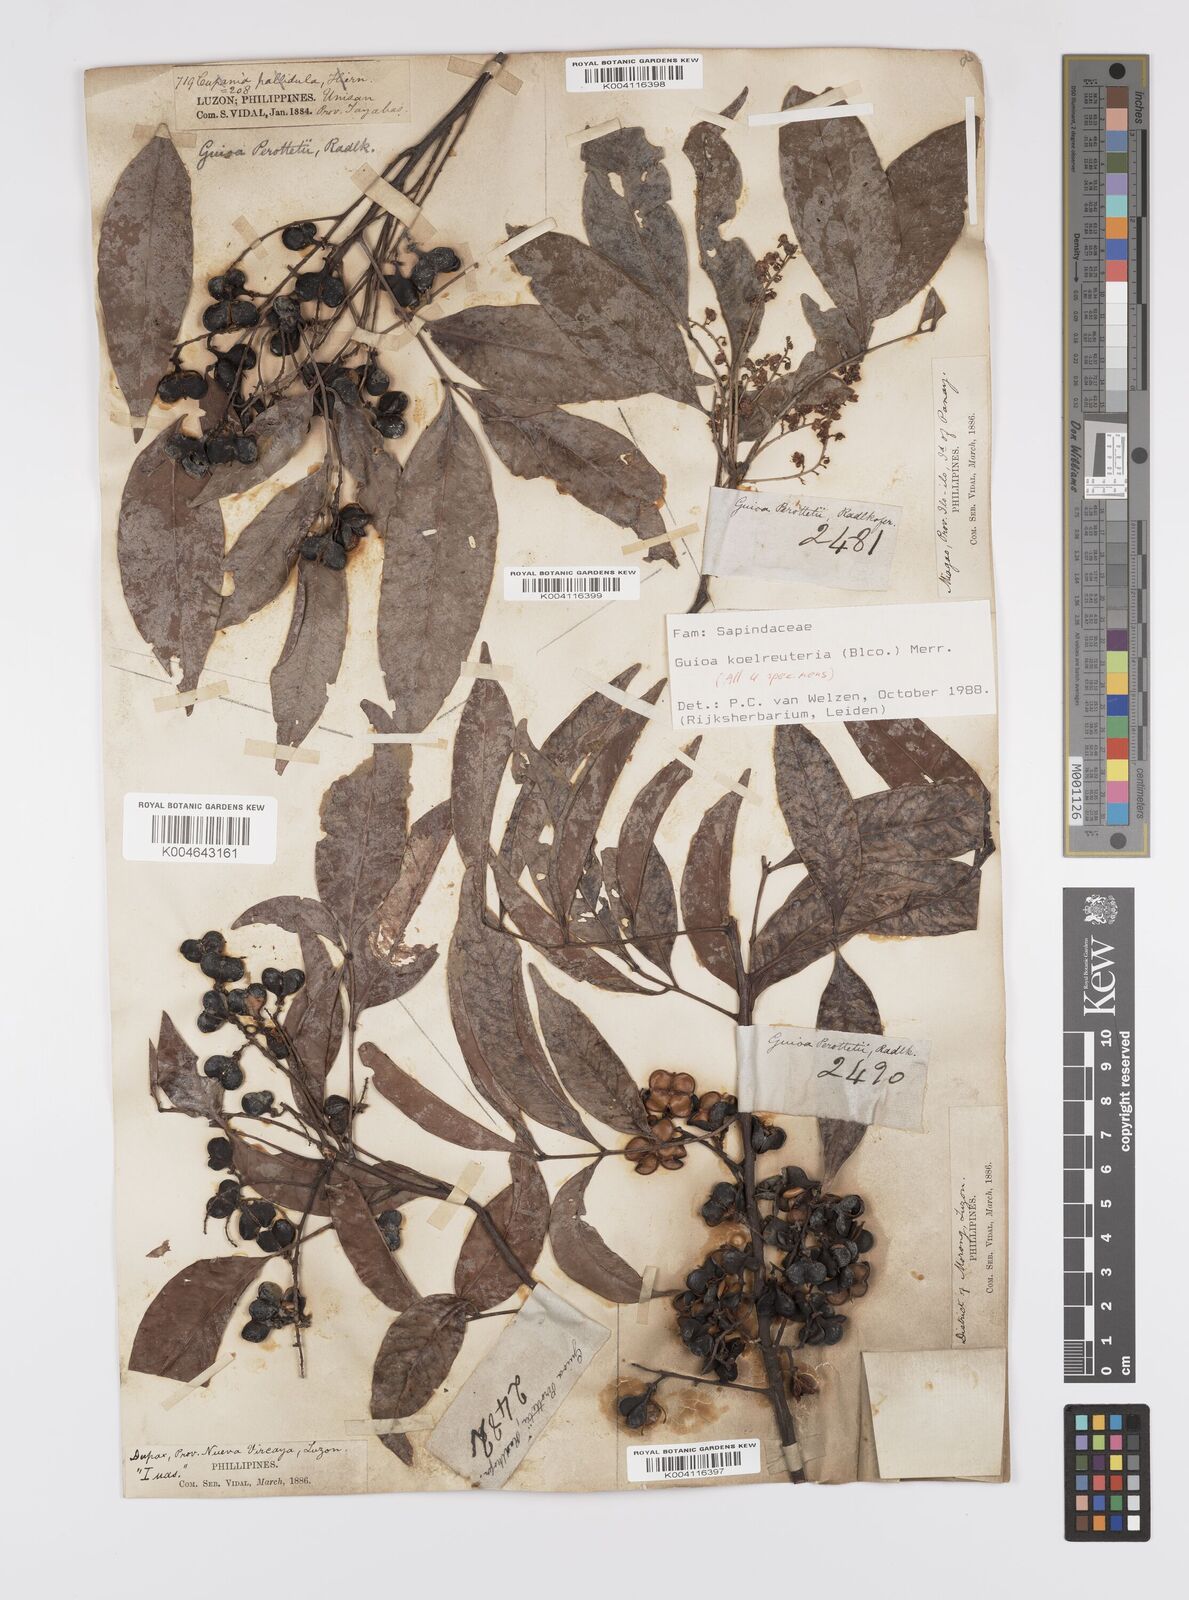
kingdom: Plantae
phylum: Tracheophyta
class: Magnoliopsida
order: Sapindales
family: Sapindaceae
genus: Guioa
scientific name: Guioa koelreuteria
